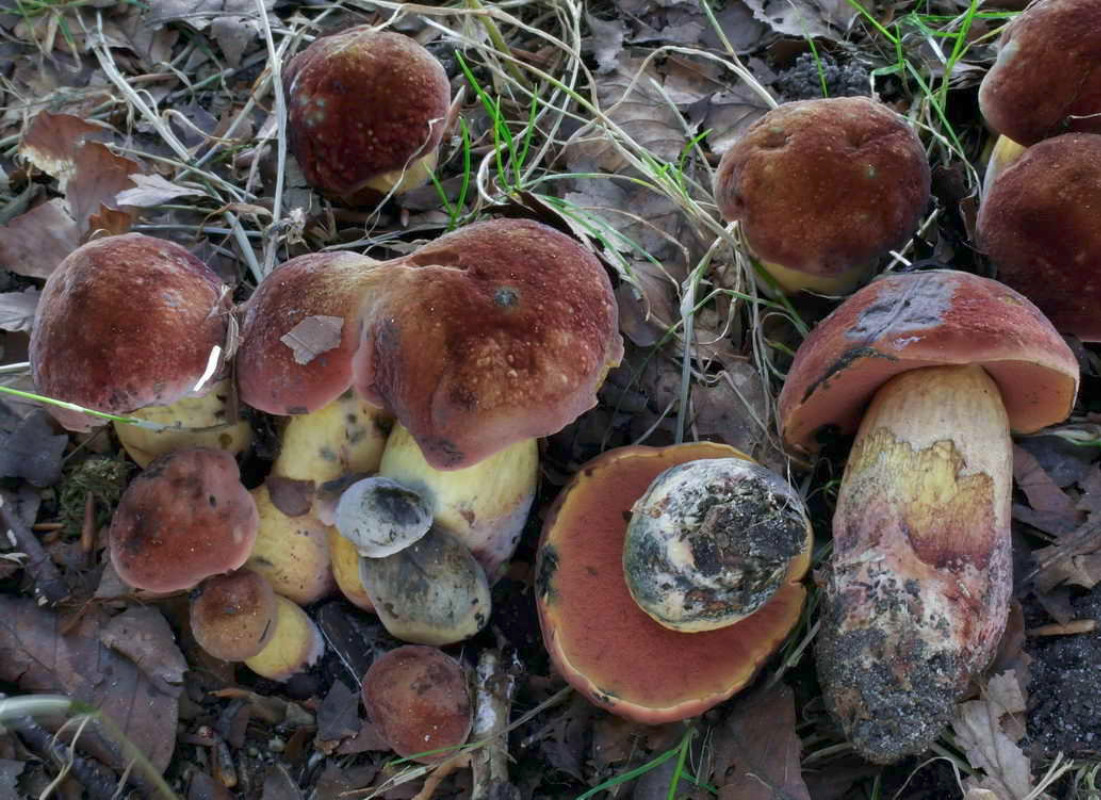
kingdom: Fungi
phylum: Basidiomycota
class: Agaricomycetes
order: Boletales
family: Boletaceae
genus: Suillellus
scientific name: Suillellus queletii
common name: glatstokket indigorørhat
